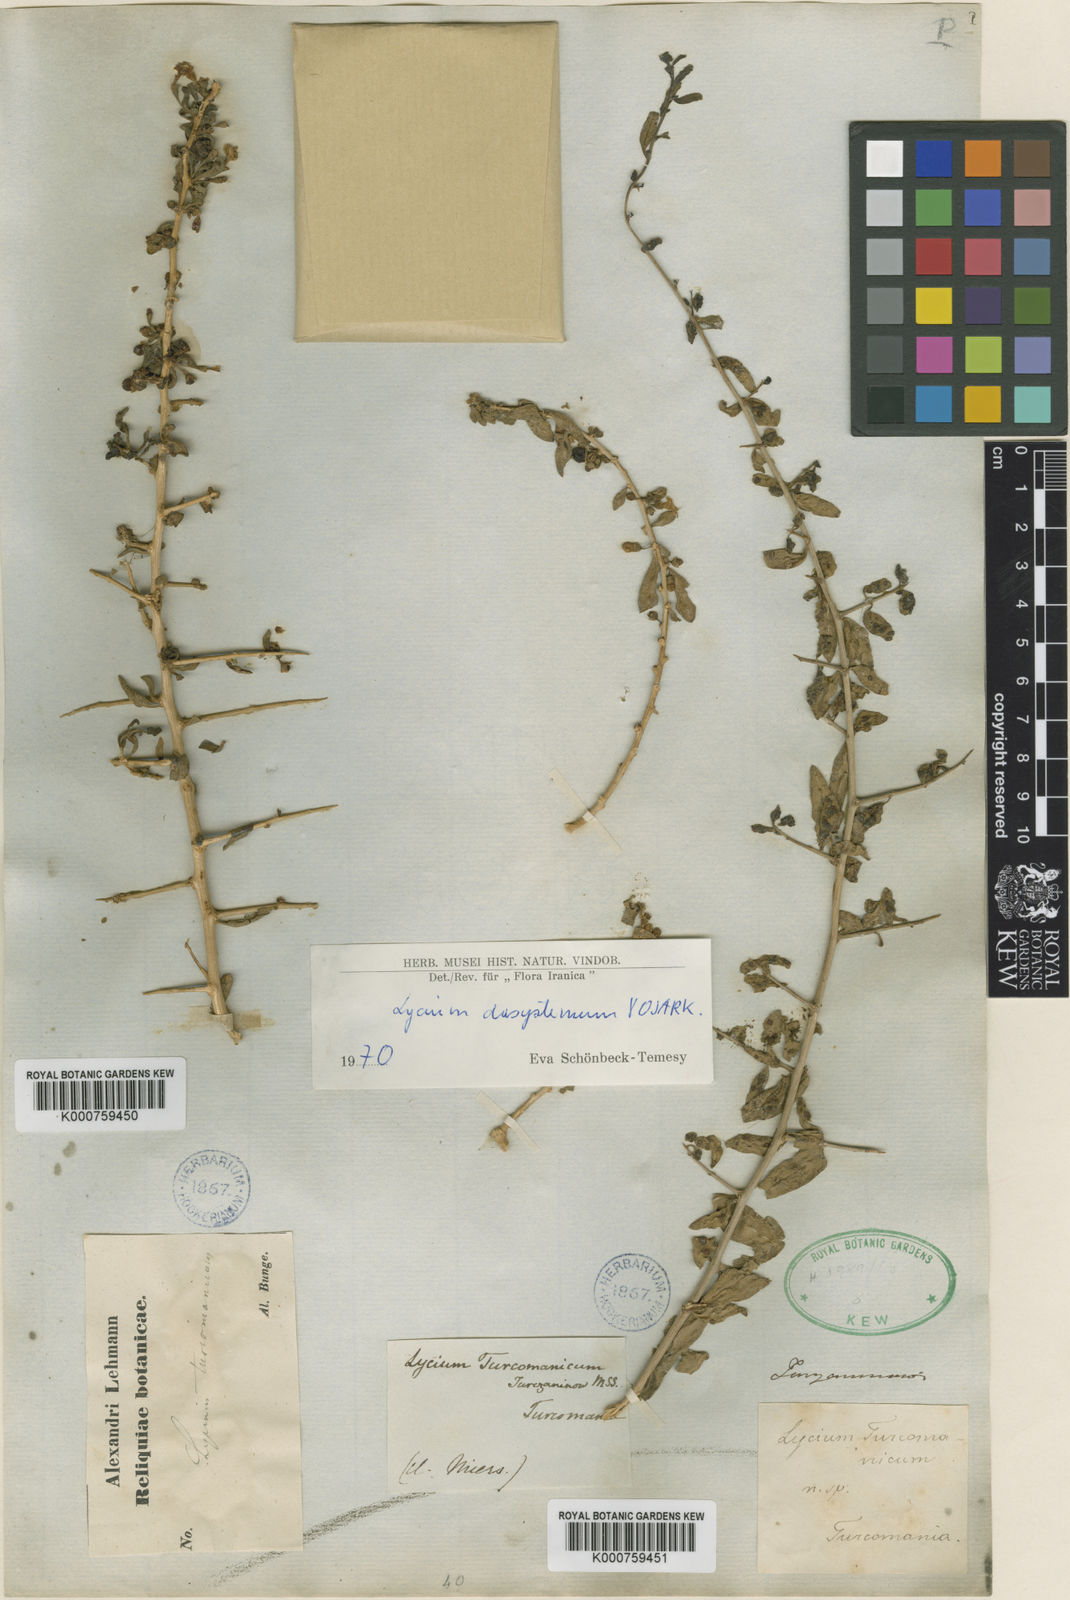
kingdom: Plantae
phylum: Tracheophyta
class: Magnoliopsida
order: Solanales
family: Solanaceae
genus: Lycium
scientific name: Lycium depressum
